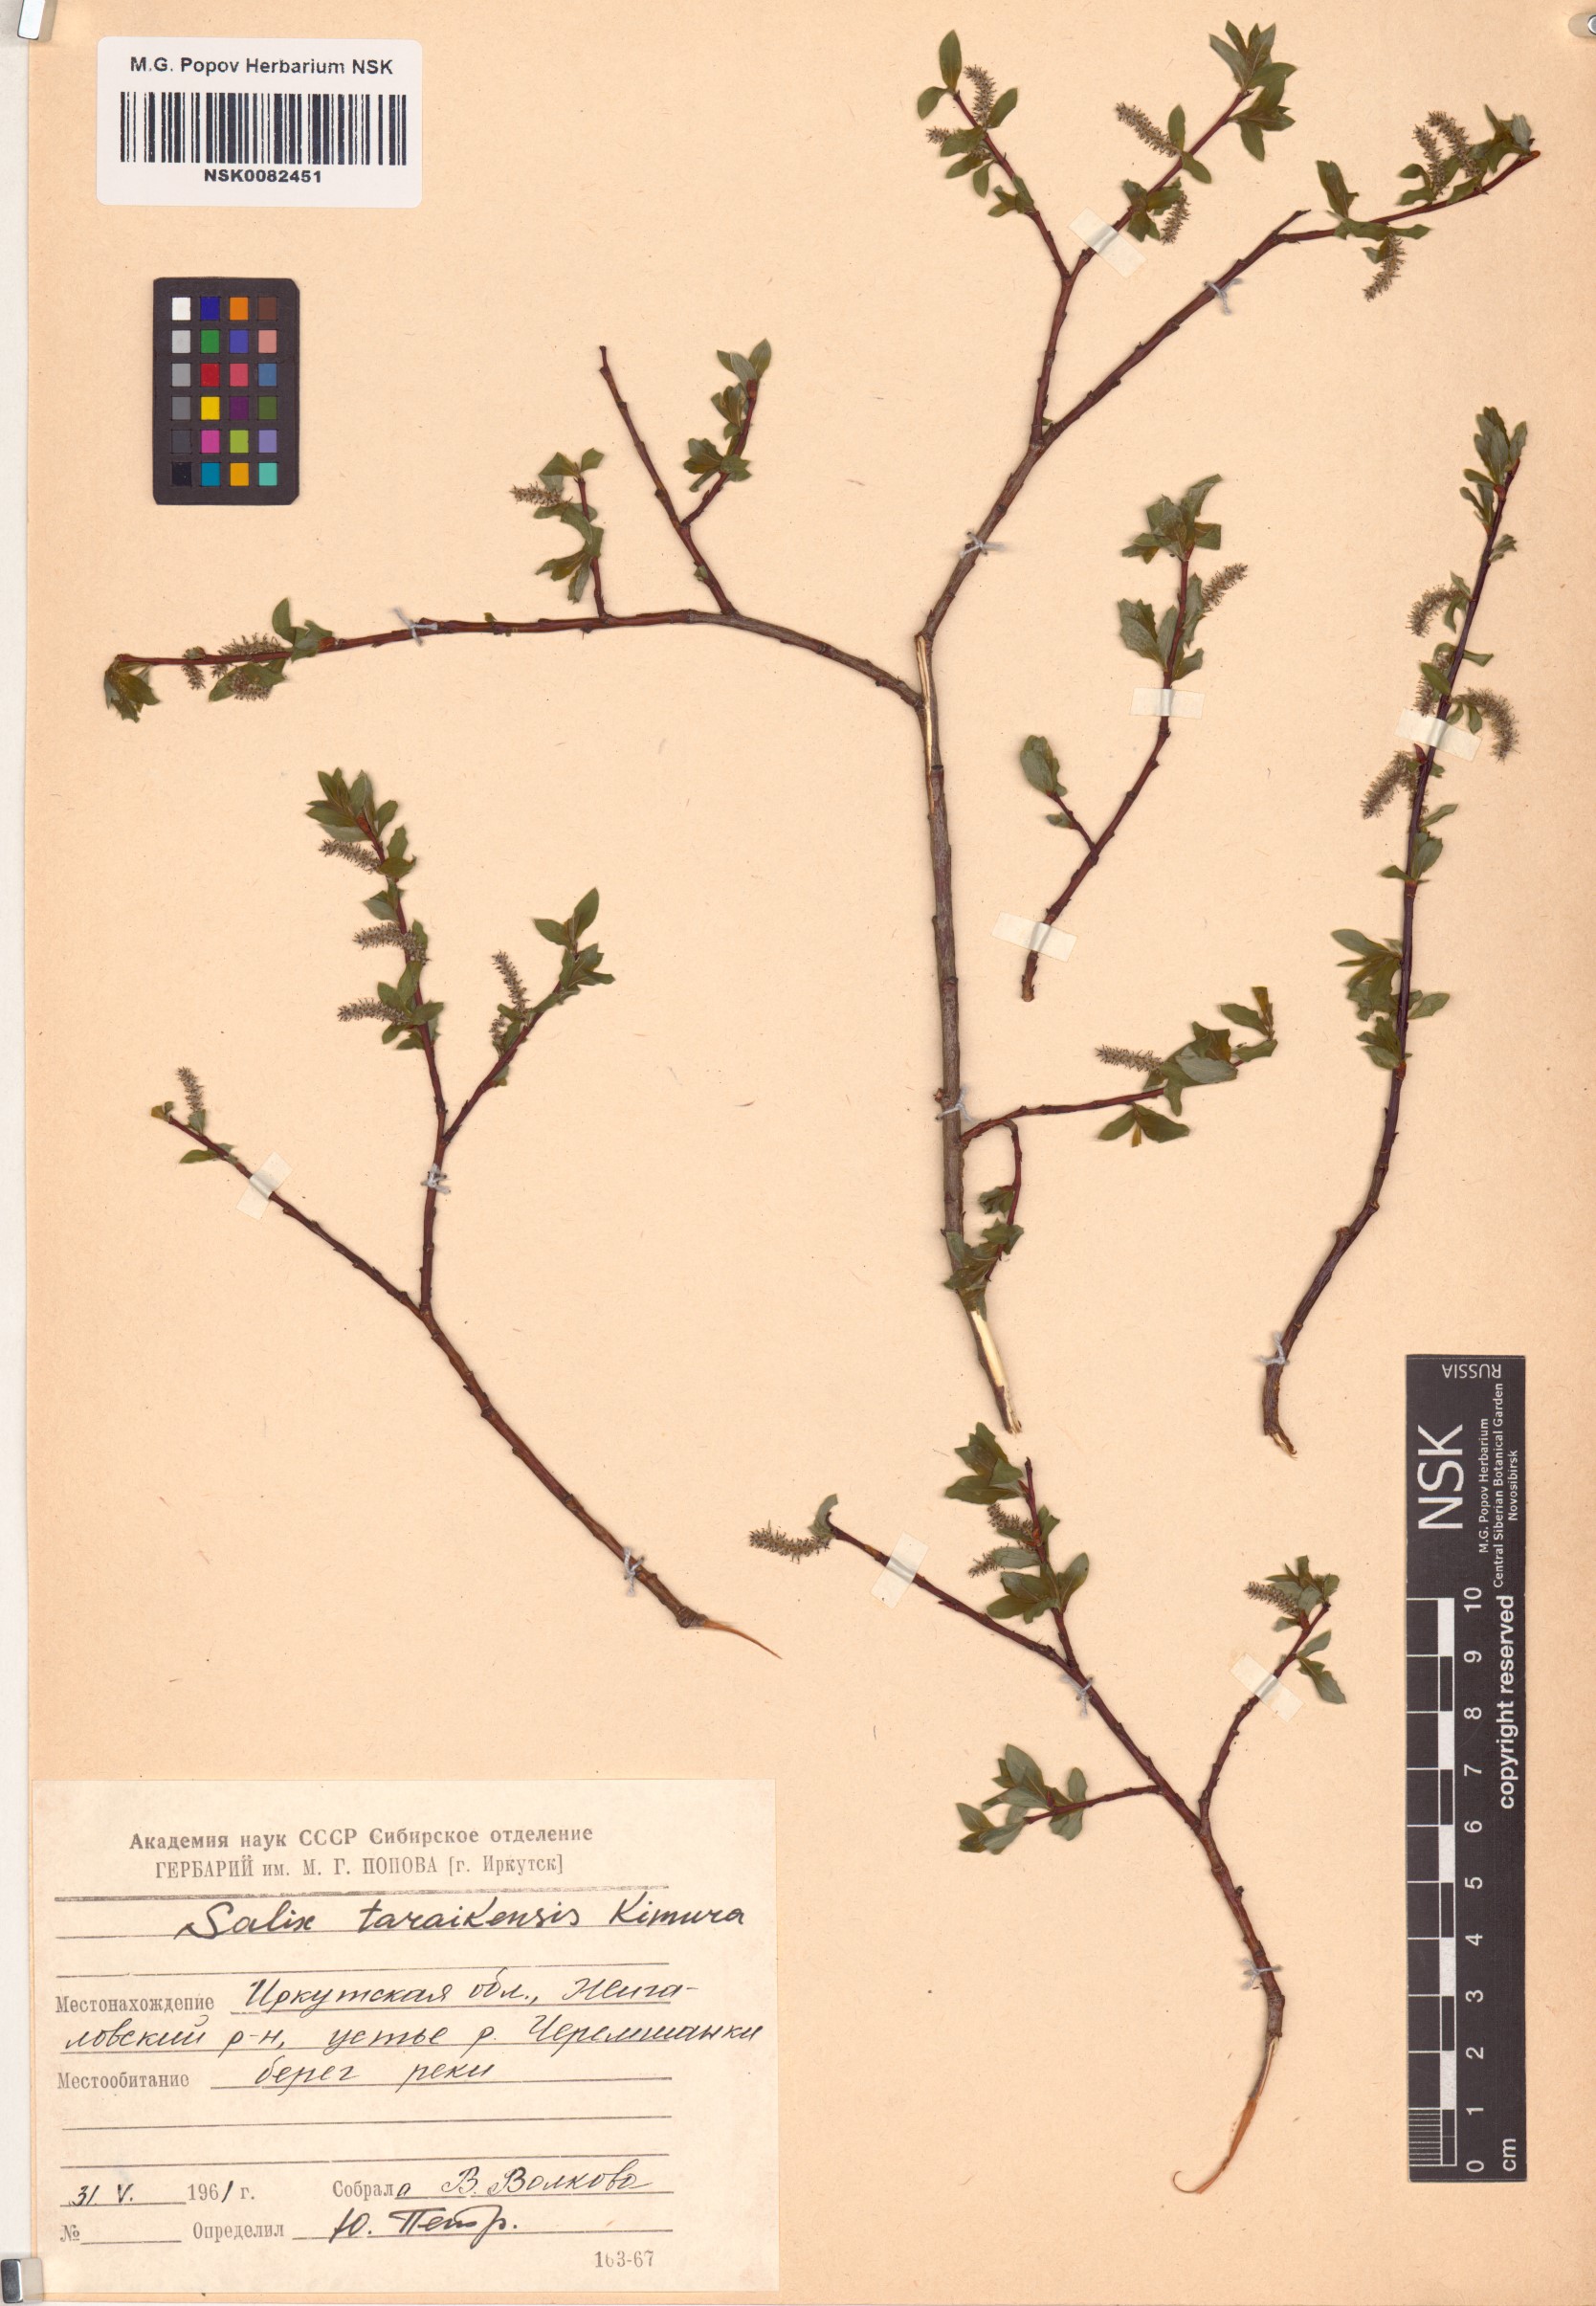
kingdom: Plantae
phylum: Tracheophyta
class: Magnoliopsida
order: Malpighiales
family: Salicaceae
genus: Salix
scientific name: Salix taraikensis
